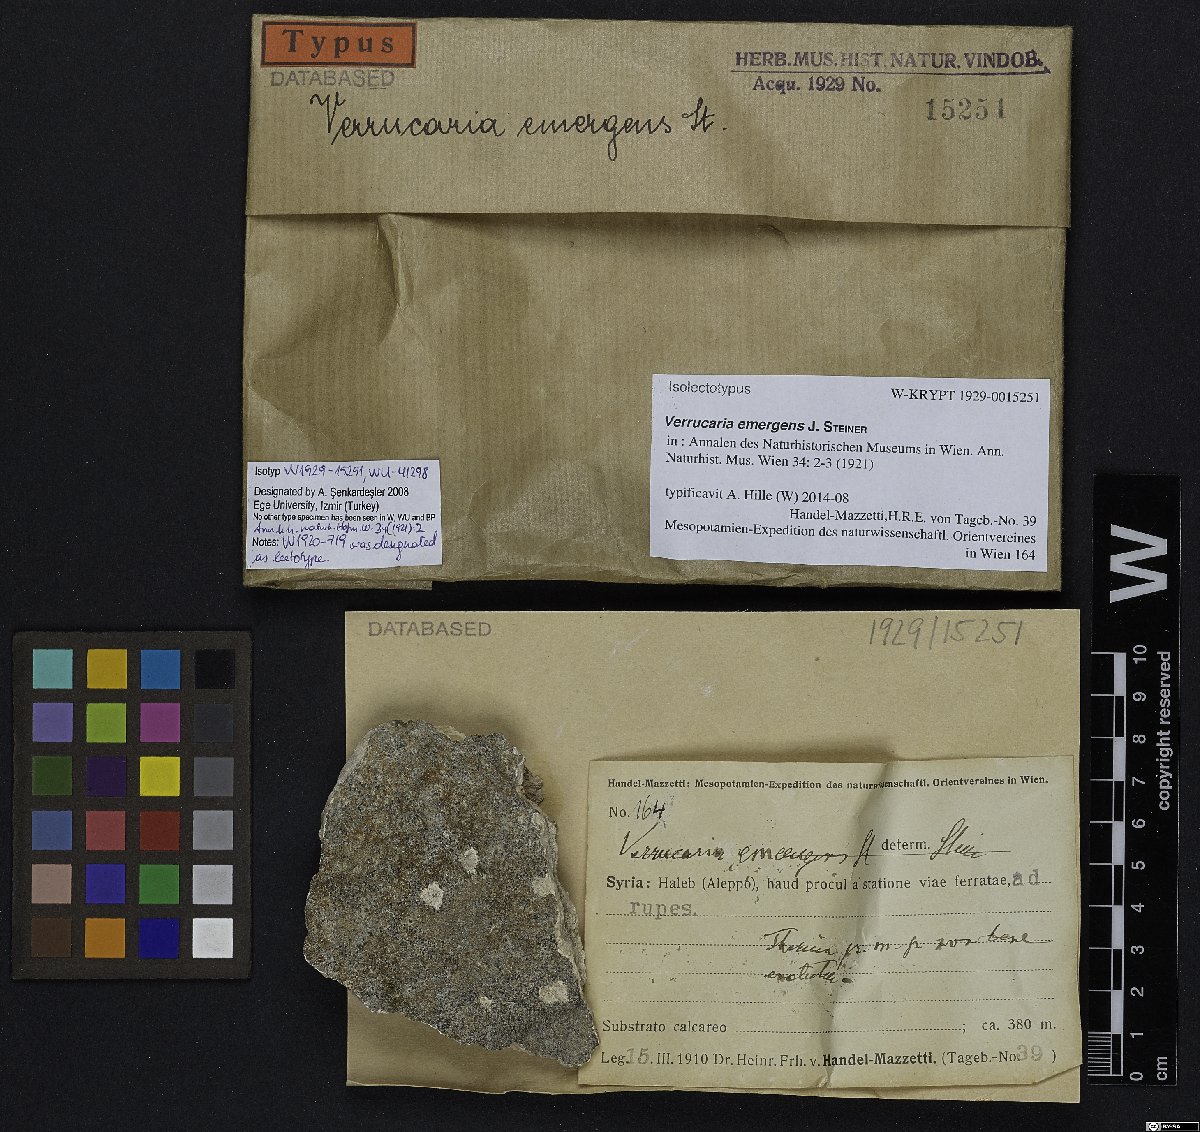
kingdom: Fungi
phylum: Ascomycota
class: Eurotiomycetes
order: Verrucariales
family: Verrucariaceae
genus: Verrucaria
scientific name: Verrucaria
